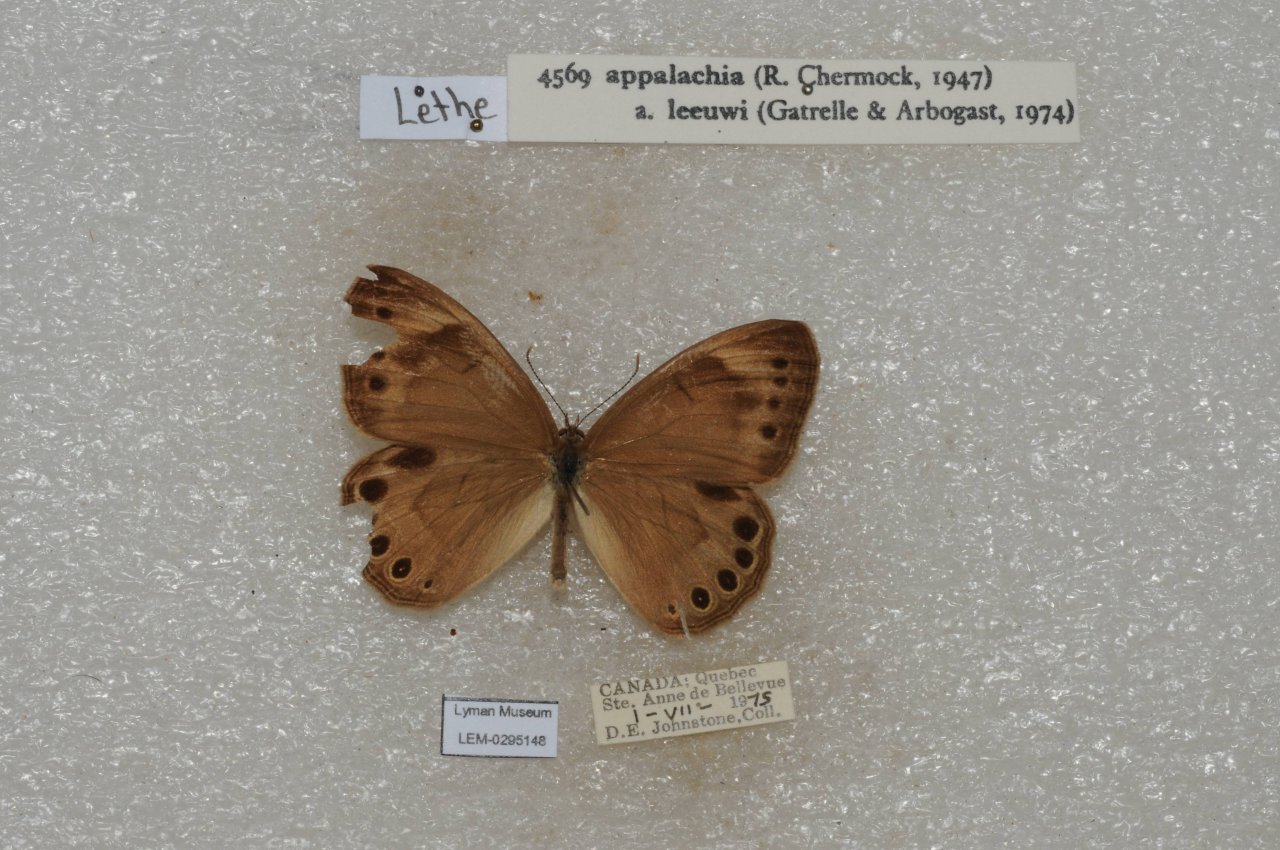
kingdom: Animalia
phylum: Arthropoda
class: Insecta
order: Lepidoptera
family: Nymphalidae
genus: Lethe
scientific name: Lethe eurydice
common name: Appalachian Eyed Brown
